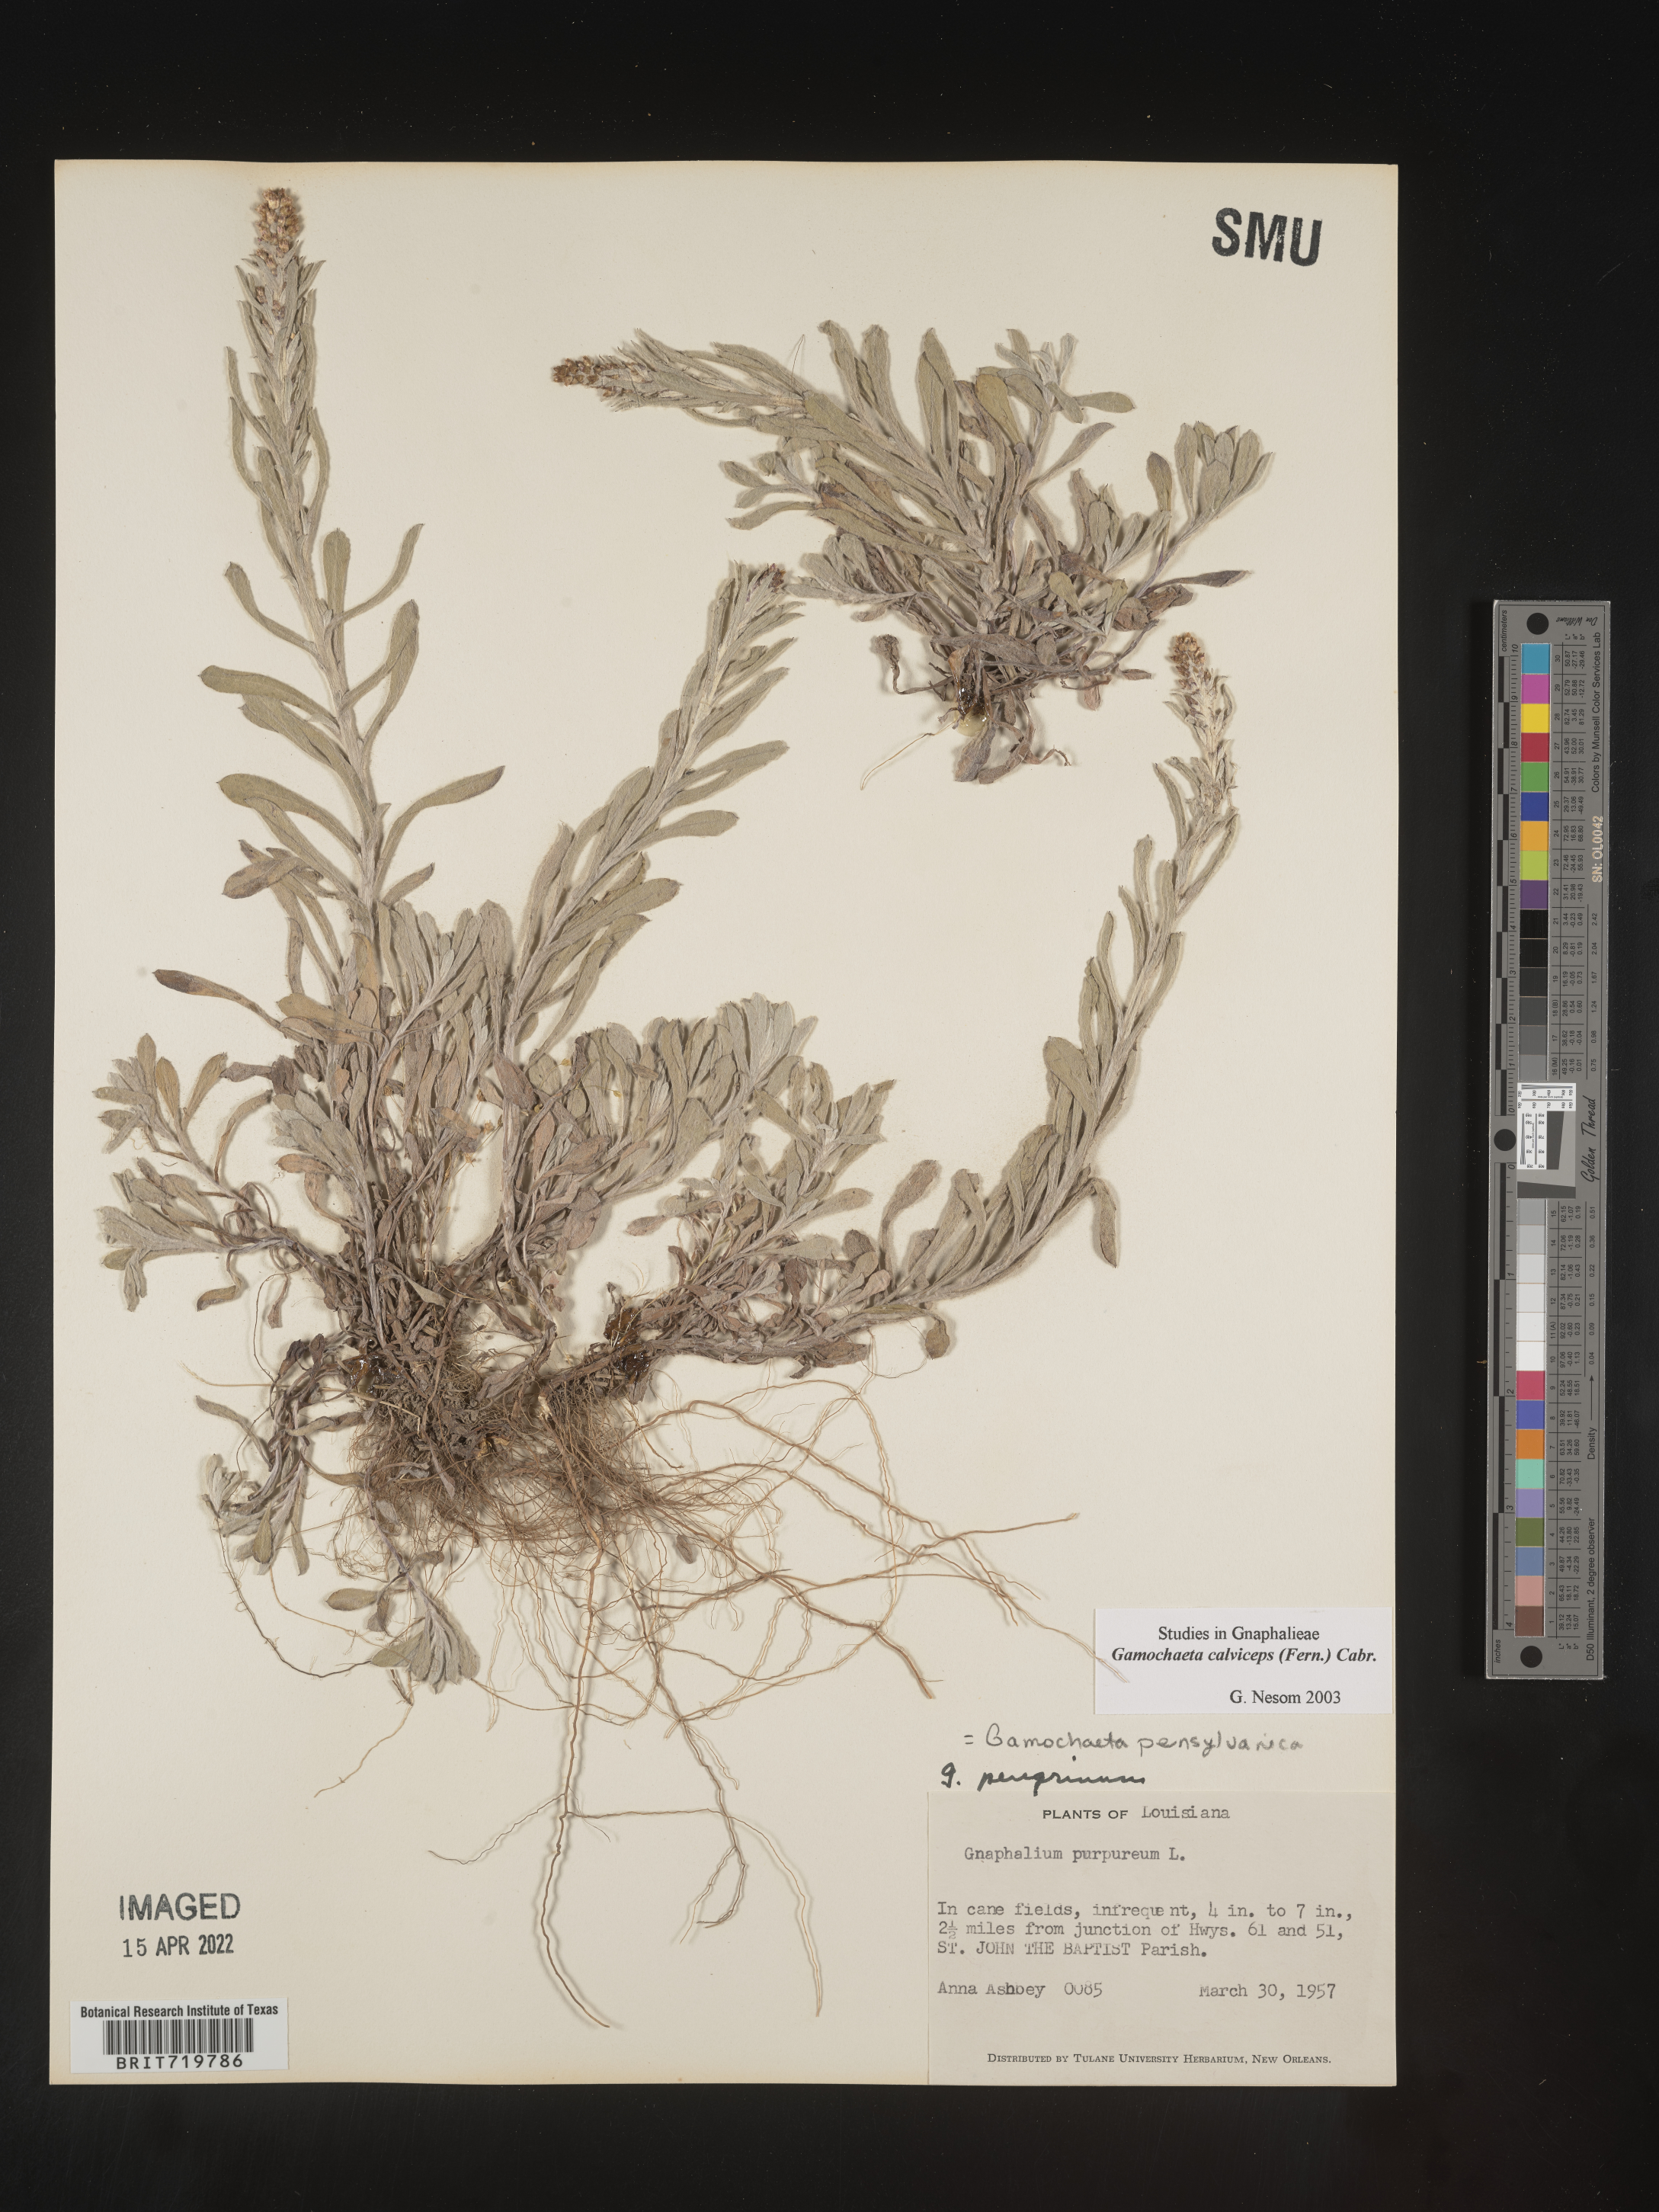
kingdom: Plantae
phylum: Tracheophyta
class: Magnoliopsida
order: Asterales
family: Asteraceae
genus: Gamochaeta
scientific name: Gamochaeta calviceps
